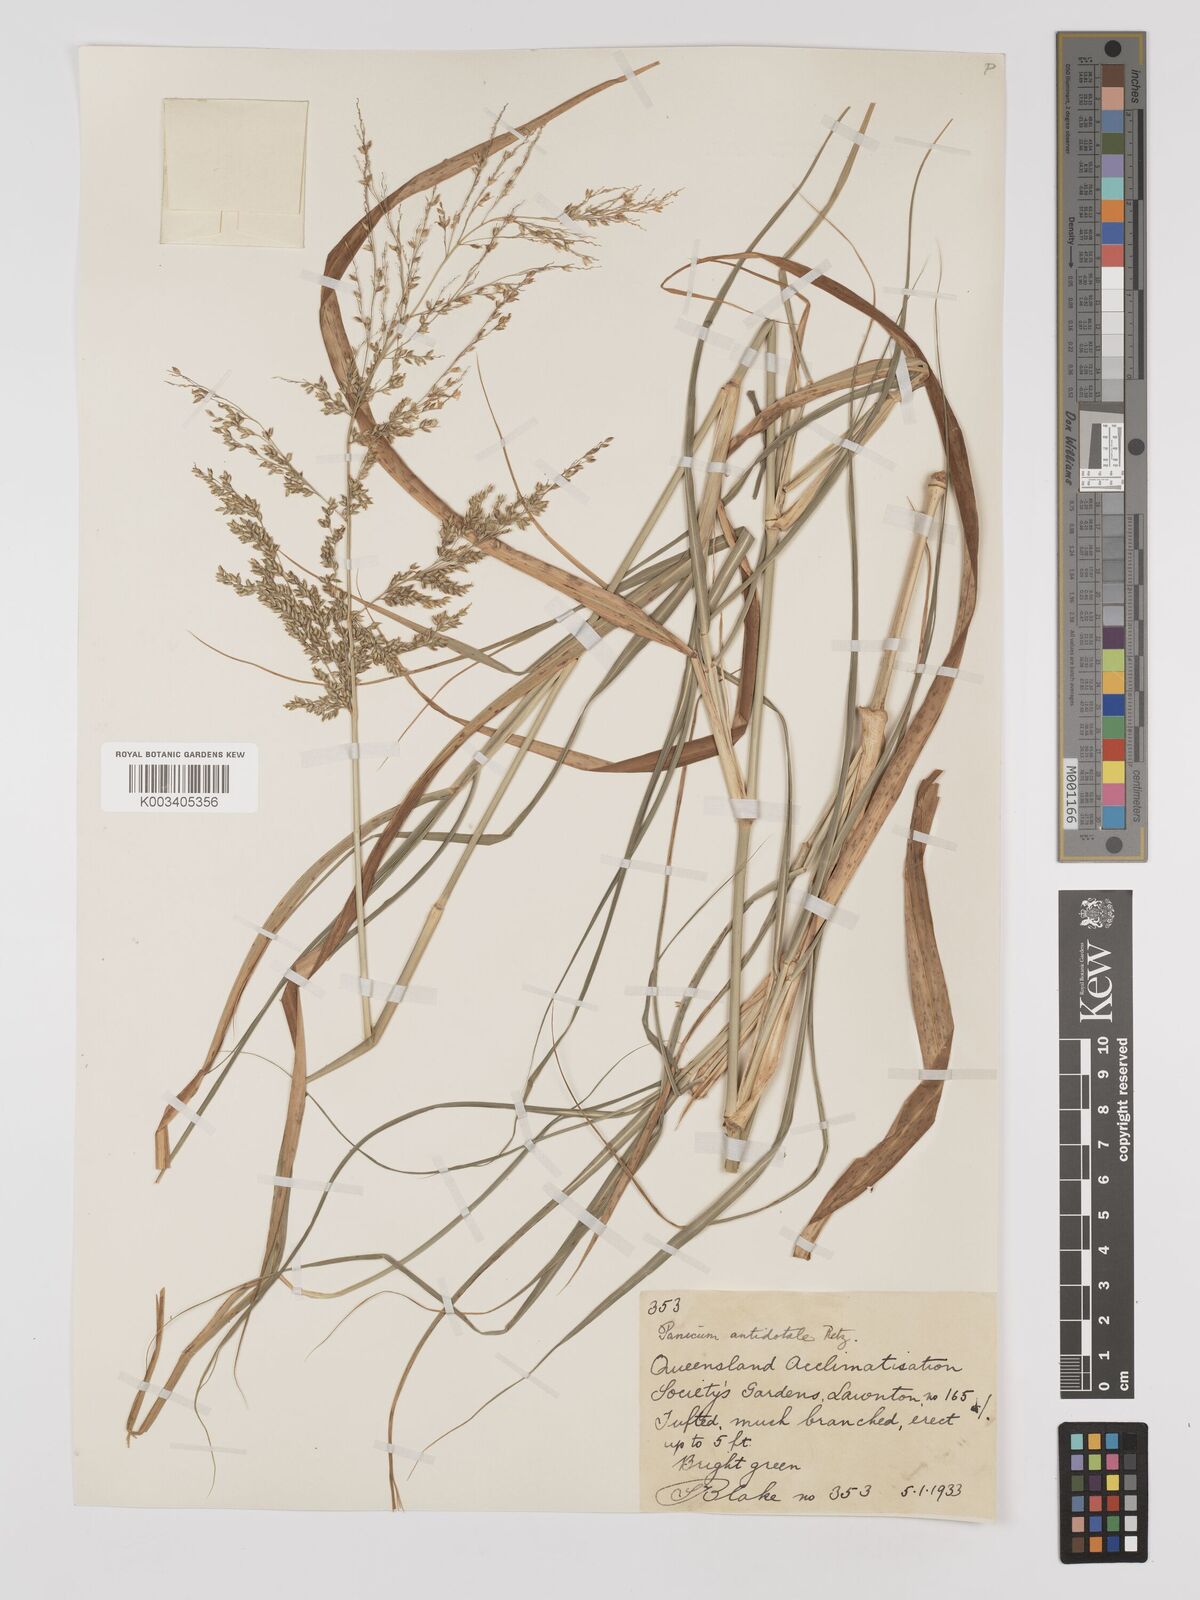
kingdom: Plantae
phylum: Tracheophyta
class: Liliopsida
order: Poales
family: Poaceae
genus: Panicum
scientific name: Panicum antidotale
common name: Blue panicum
